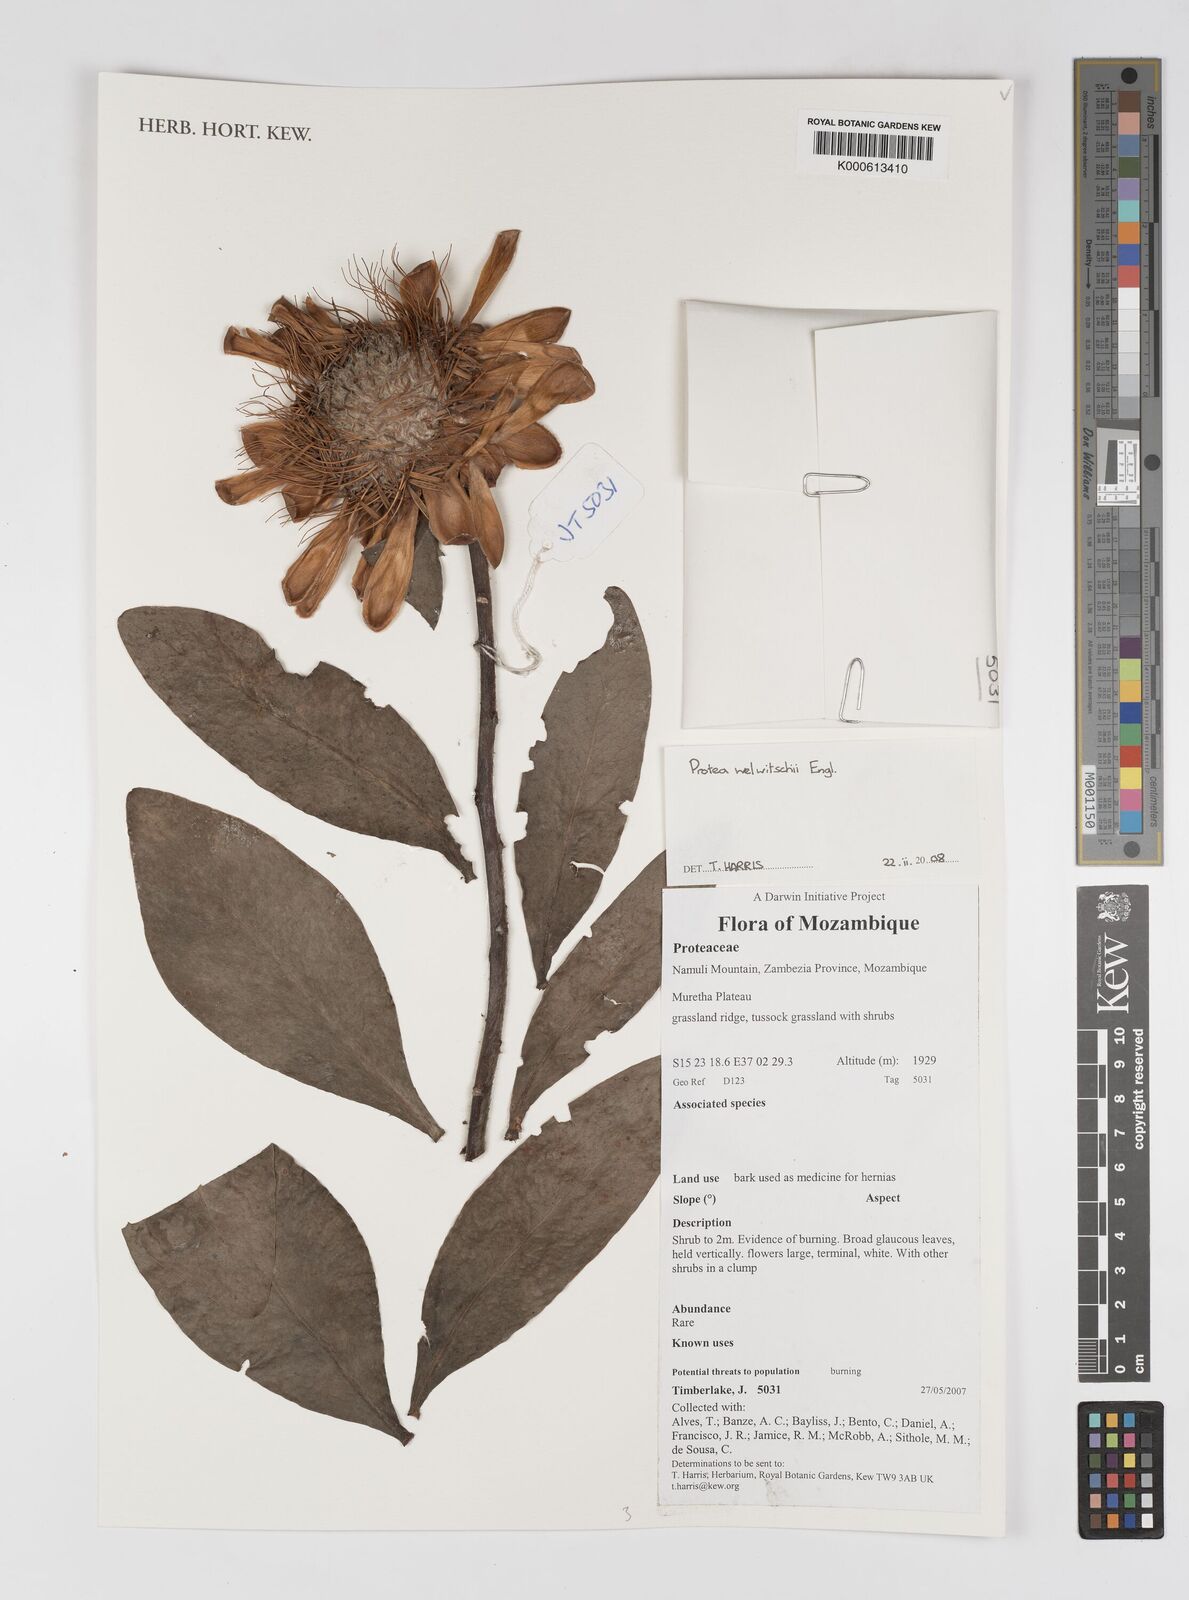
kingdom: Plantae
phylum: Tracheophyta
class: Magnoliopsida
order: Proteales
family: Proteaceae
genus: Protea
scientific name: Protea welwitschii
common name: Cluster-head protea
